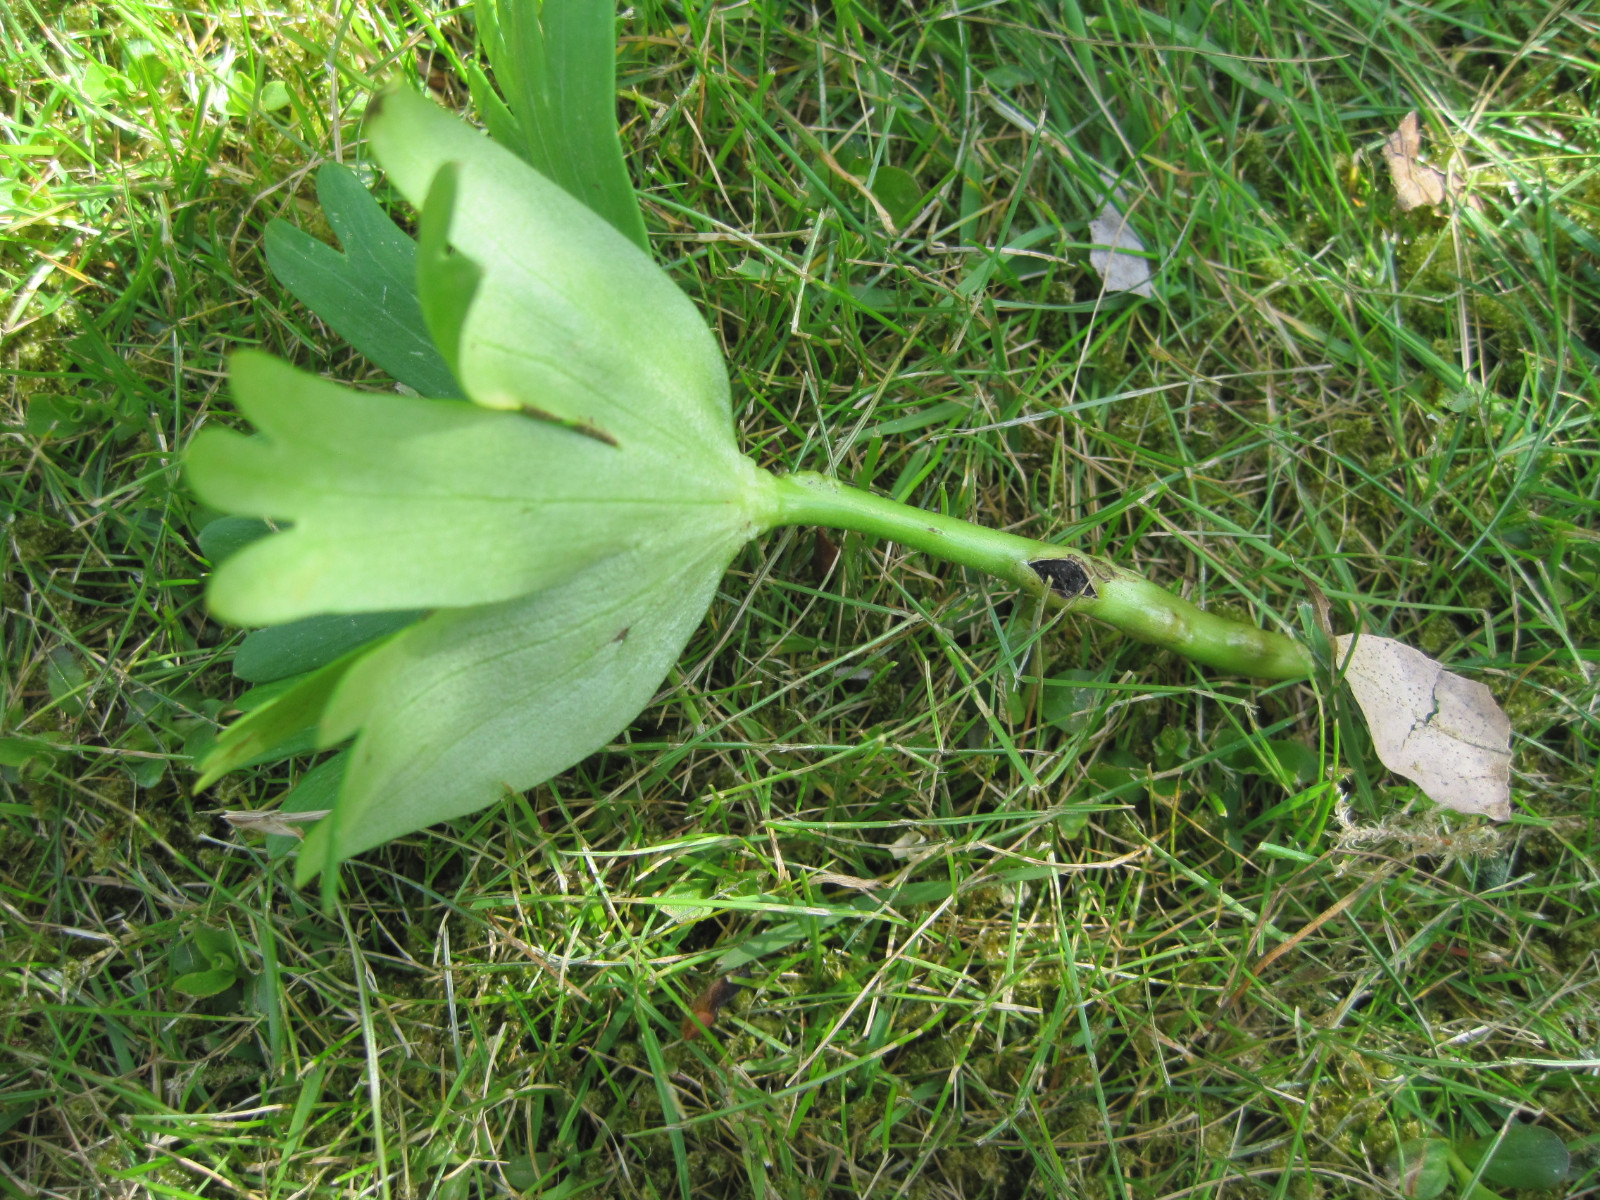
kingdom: Fungi
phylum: Basidiomycota
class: Ustilaginomycetes
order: Urocystidales
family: Urocystidaceae
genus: Urocystis
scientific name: Urocystis eranthidis
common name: erantis-brand
